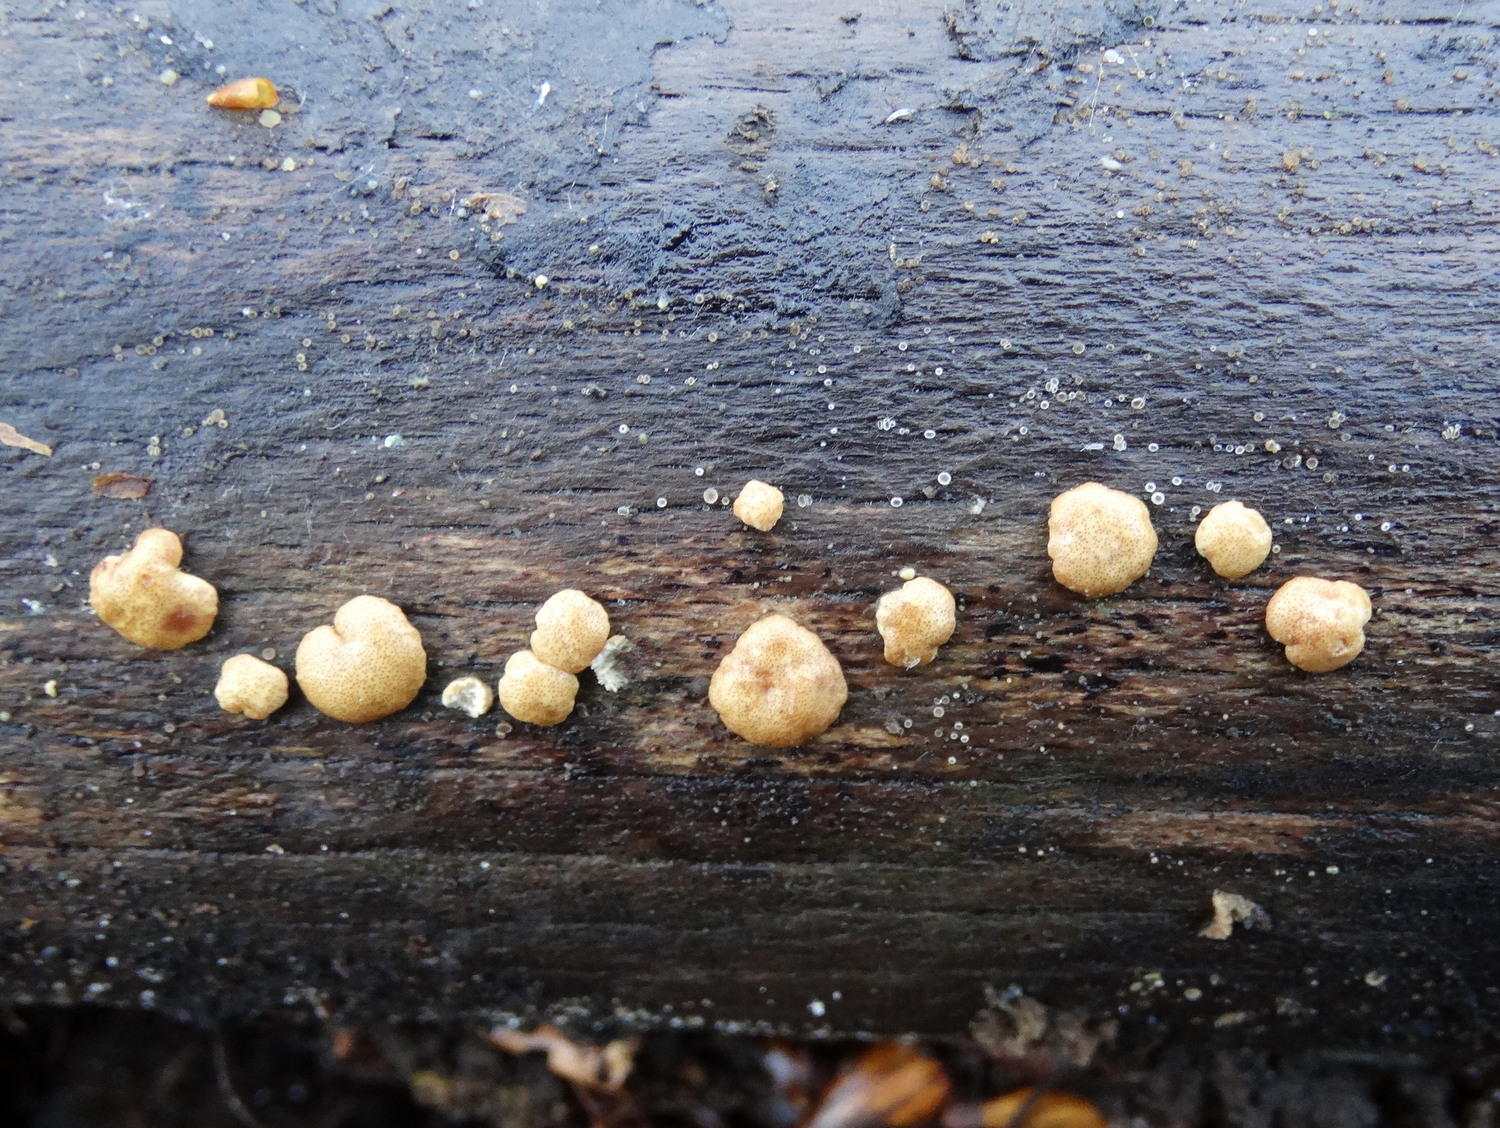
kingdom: Fungi
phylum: Ascomycota
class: Sordariomycetes
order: Hypocreales
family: Hypocreaceae
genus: Trichoderma
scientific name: Trichoderma
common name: kødkerne
